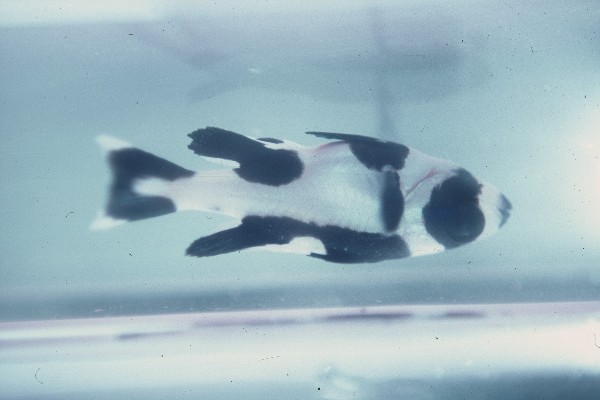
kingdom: Animalia
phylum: Chordata
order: Perciformes
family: Lutjanidae
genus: Macolor
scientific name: Macolor niger
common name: Black snapper
